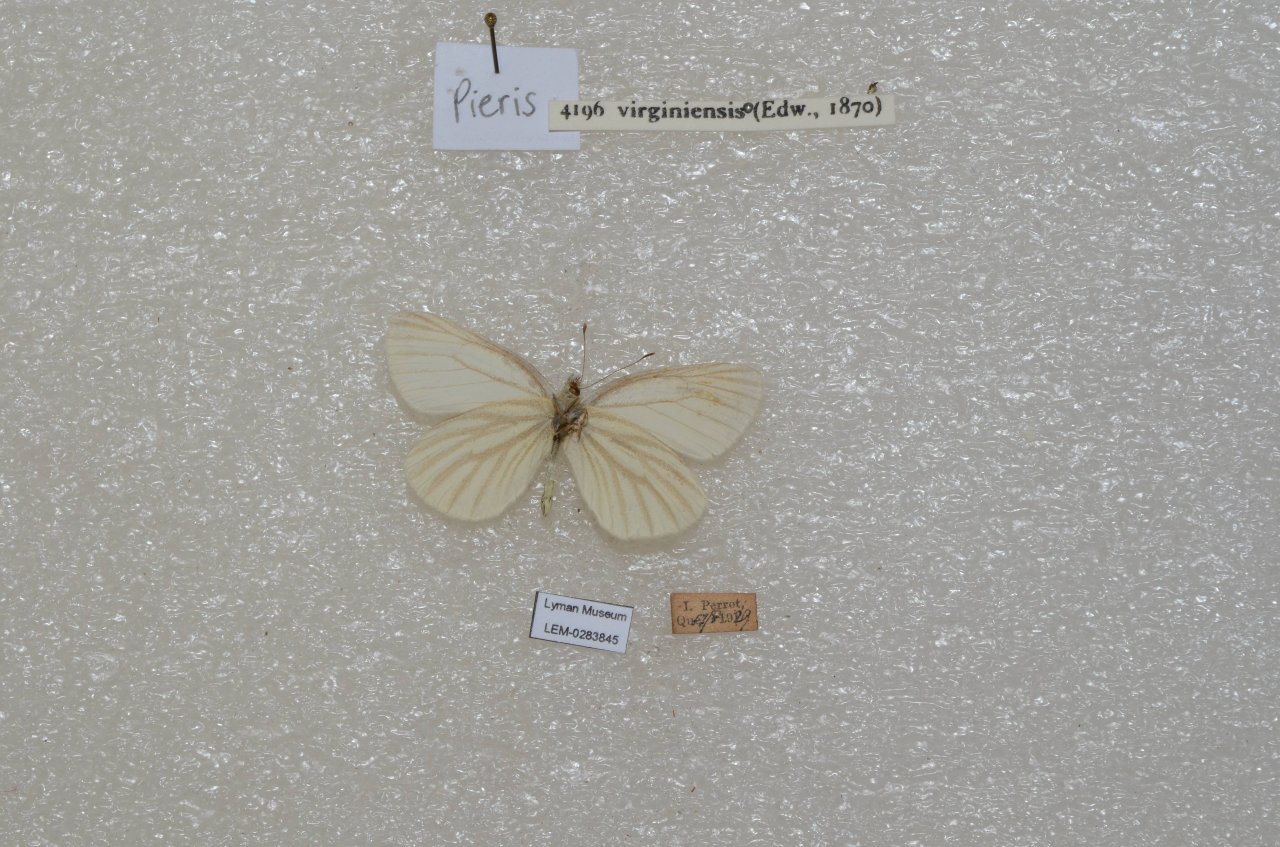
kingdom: Animalia
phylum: Arthropoda
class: Insecta
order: Lepidoptera
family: Pieridae
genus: Pieris
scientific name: Pieris virginiensis
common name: West Virginia White
